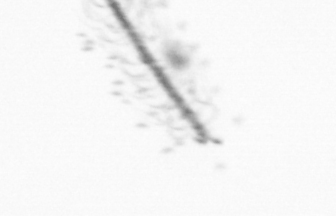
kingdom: Chromista
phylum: Ochrophyta
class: Bacillariophyceae
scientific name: Bacillariophyceae
